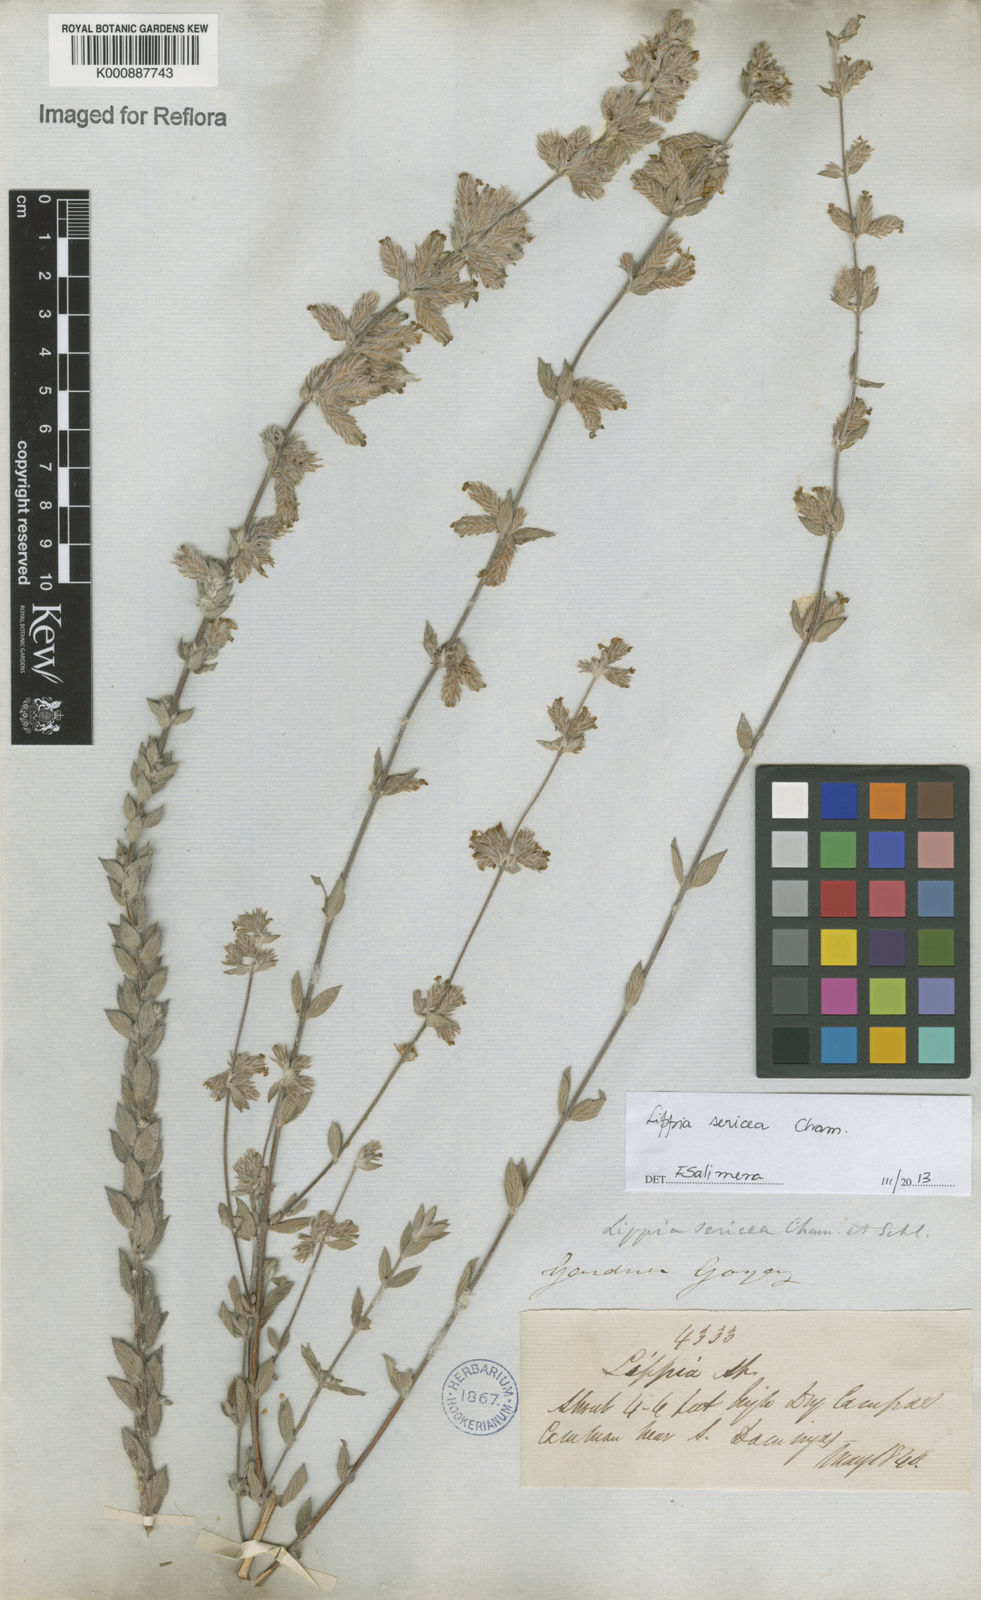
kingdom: Plantae
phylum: Tracheophyta
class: Magnoliopsida
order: Lamiales
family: Verbenaceae
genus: Lippia
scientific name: Lippia sericea
